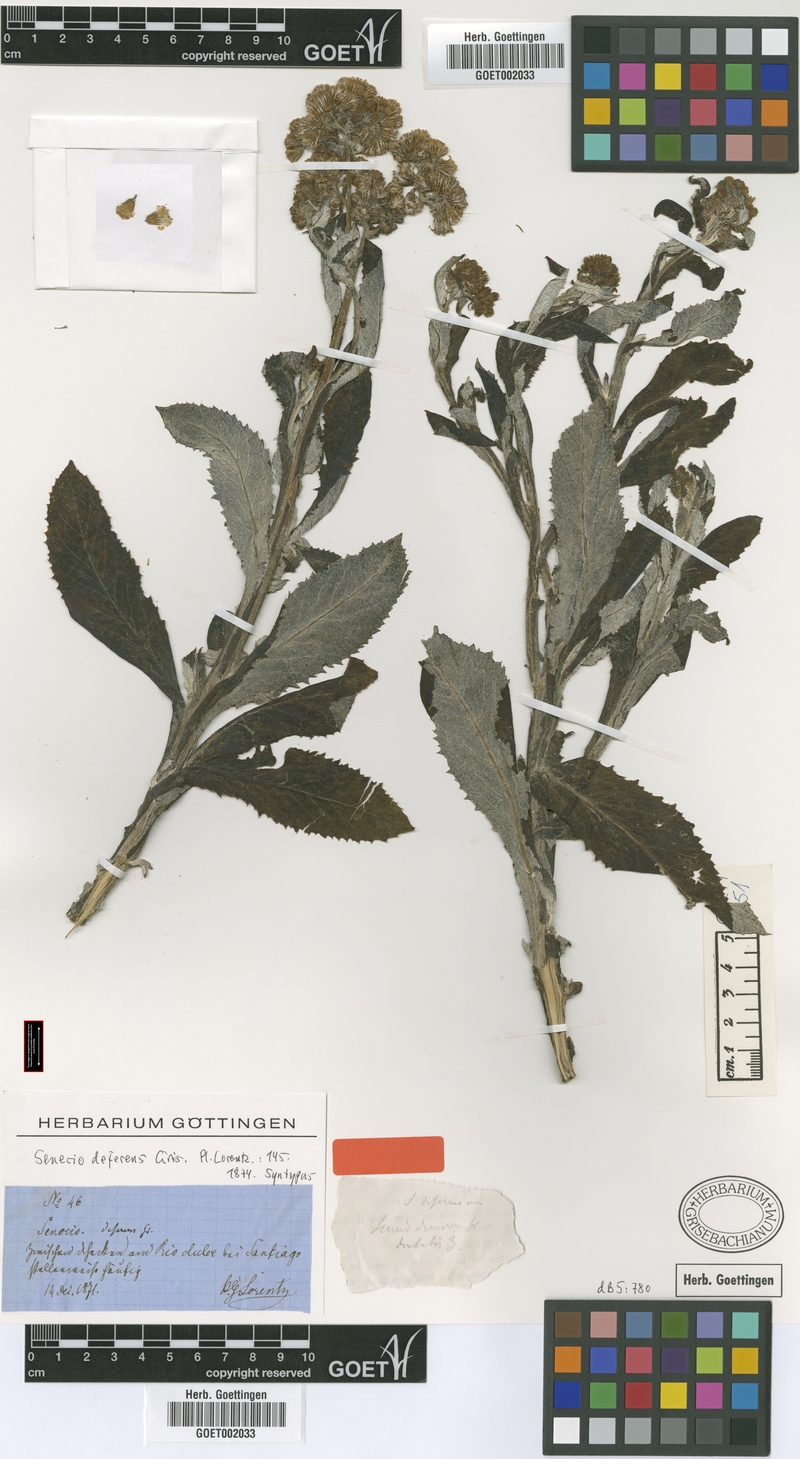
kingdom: Plantae
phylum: Tracheophyta
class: Magnoliopsida
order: Asterales
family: Asteraceae
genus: Senecio
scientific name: Senecio deferens
